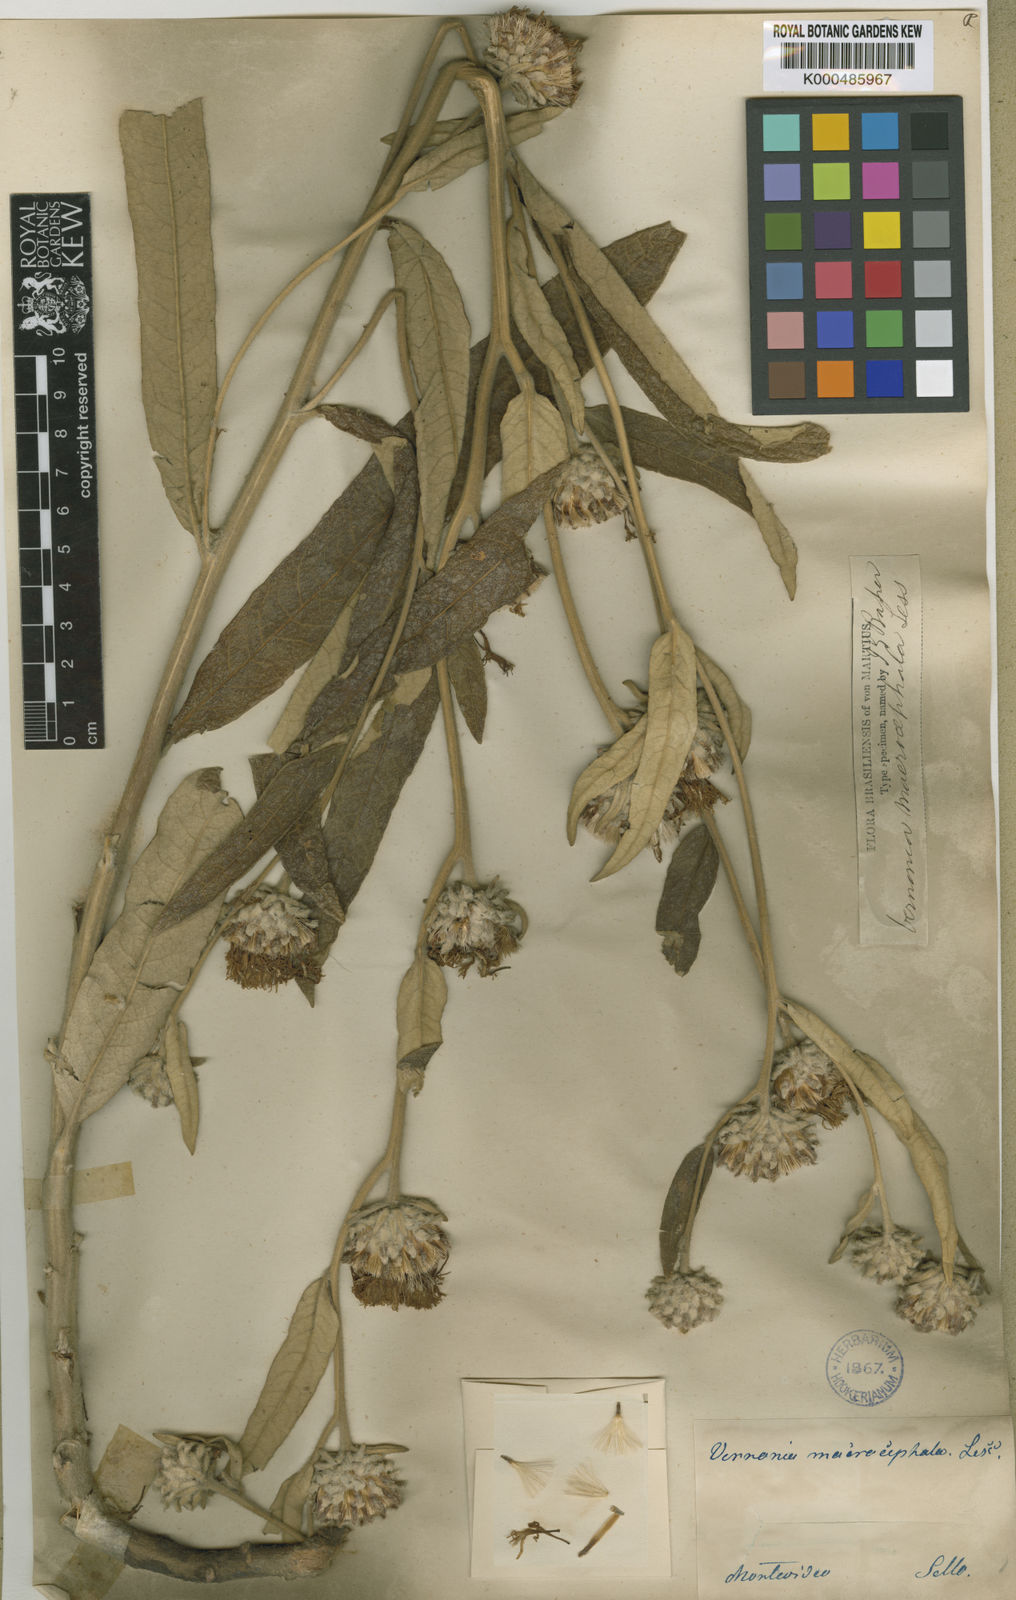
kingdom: Plantae
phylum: Tracheophyta
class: Magnoliopsida
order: Asterales
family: Asteraceae
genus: Lessingianthus
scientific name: Lessingianthus macrocephalus
